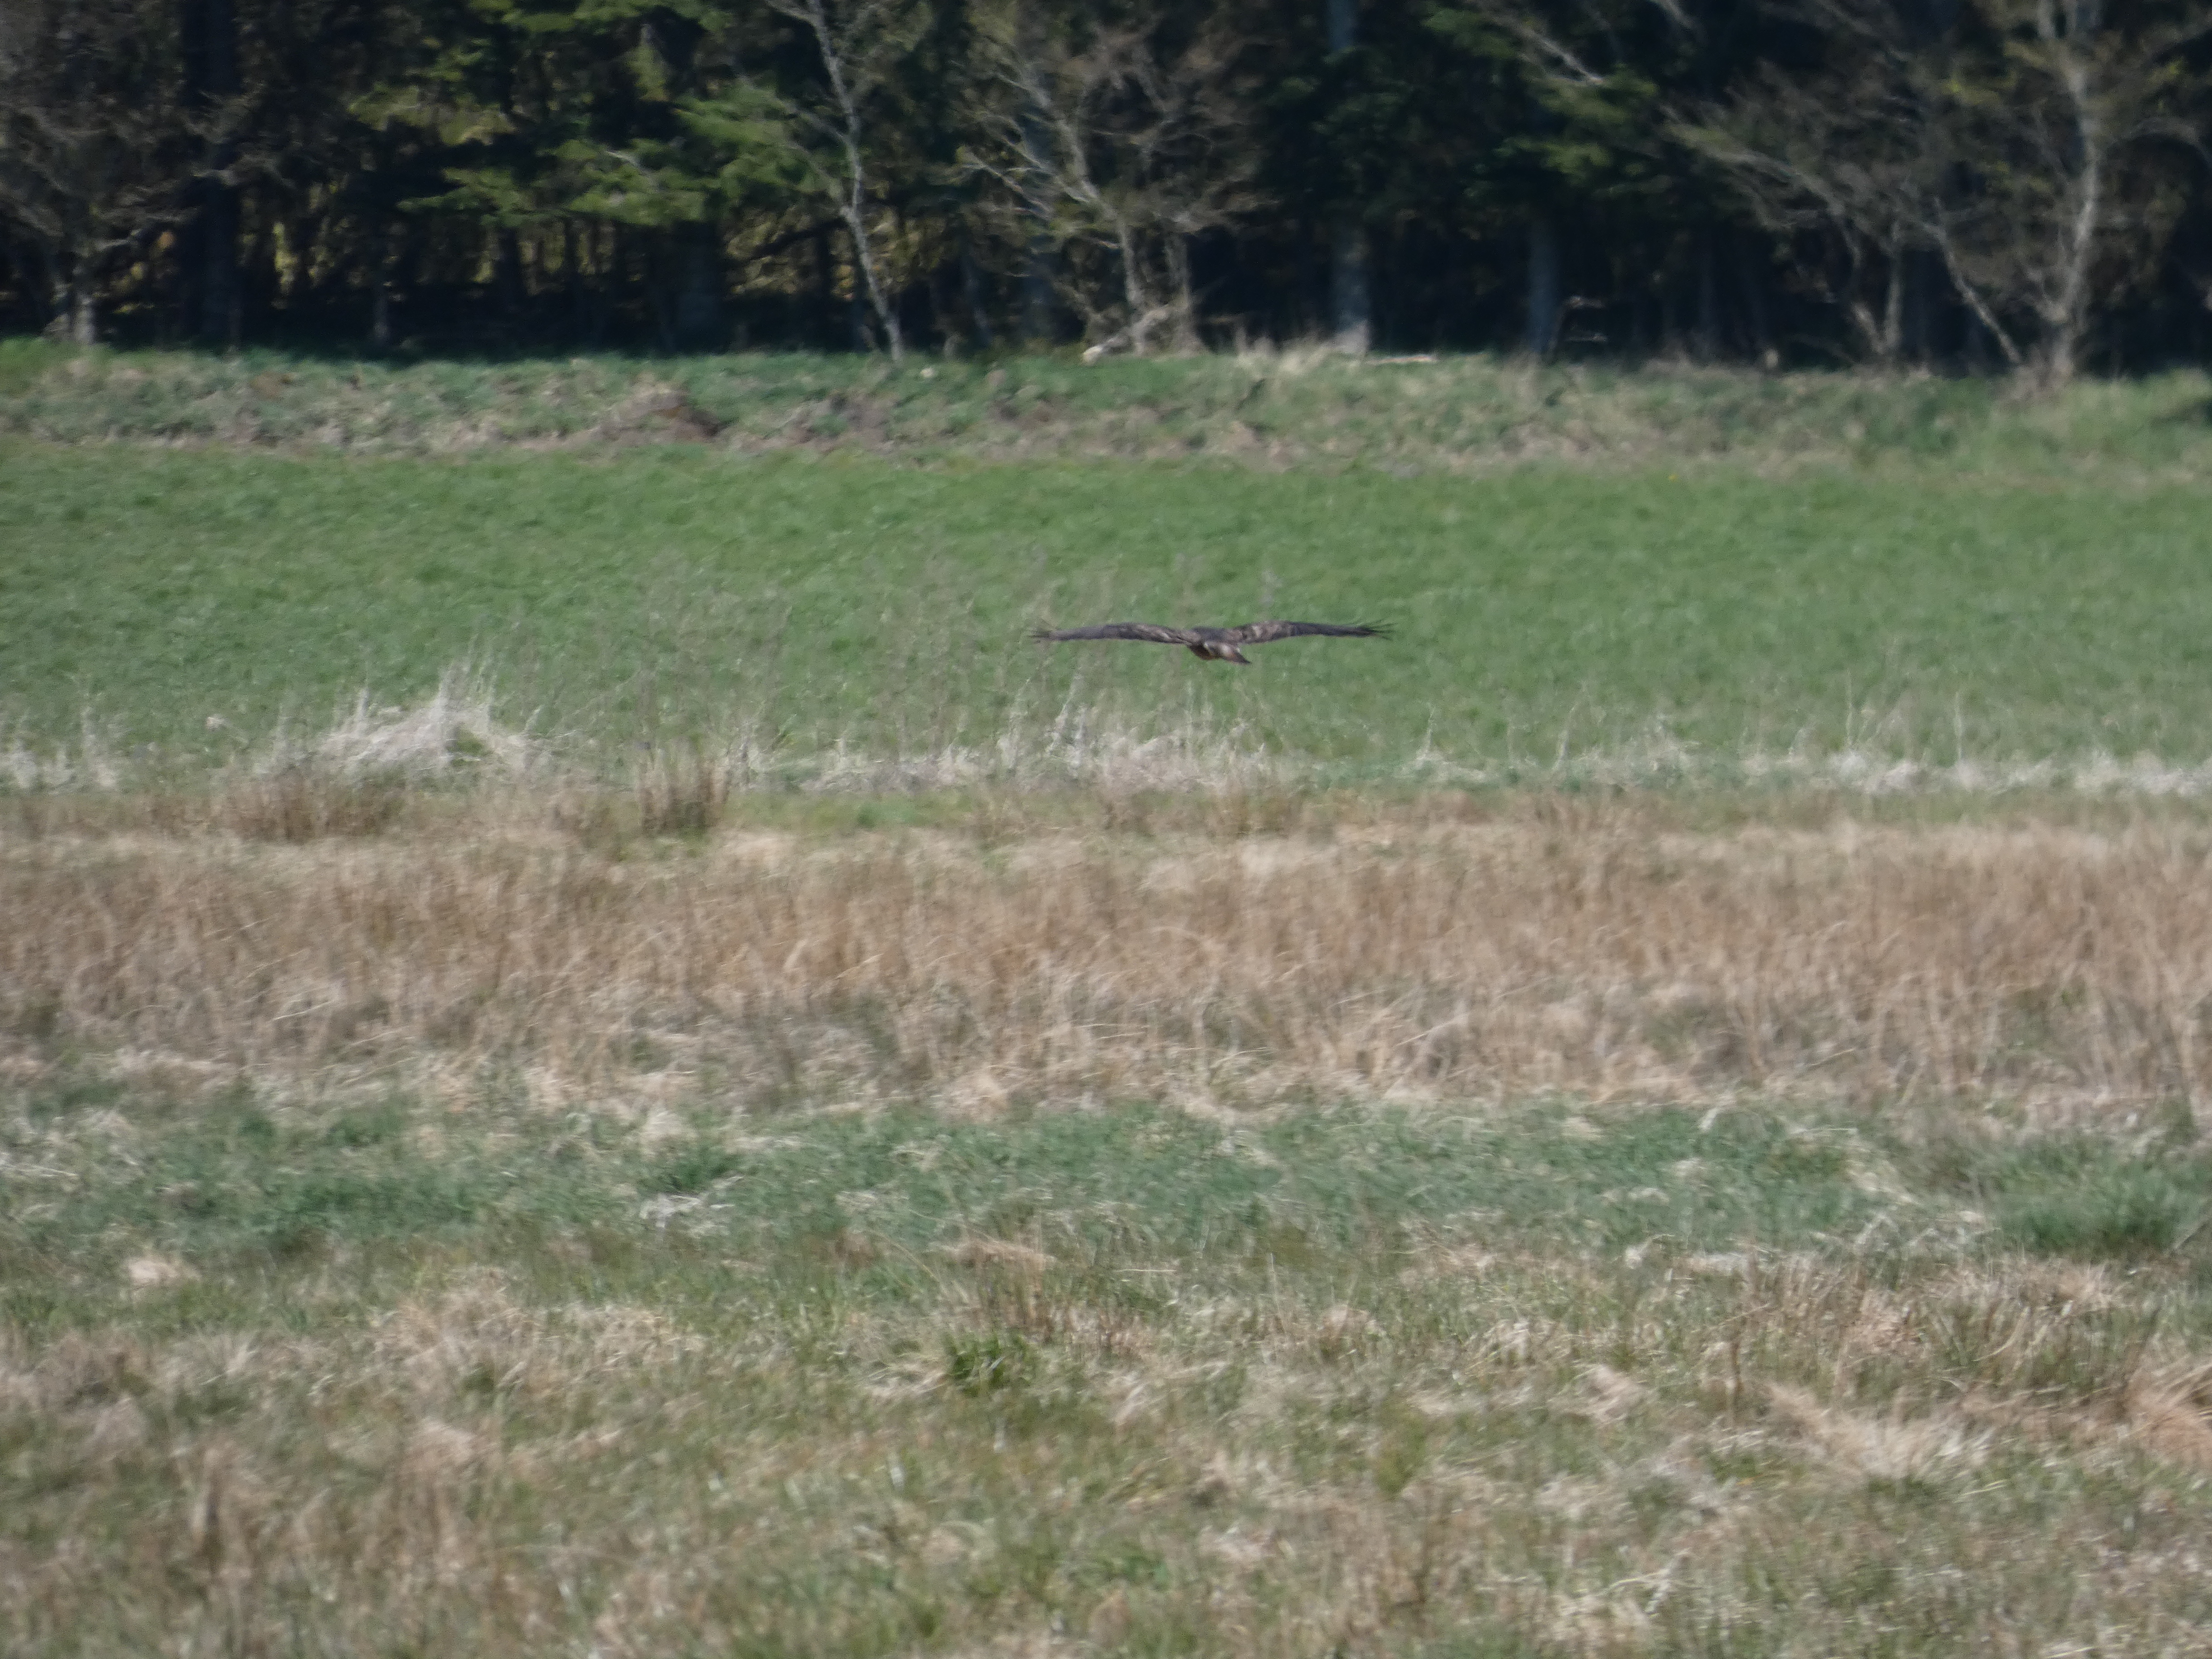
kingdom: Animalia
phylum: Chordata
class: Aves
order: Accipitriformes
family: Accipitridae
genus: Buteo
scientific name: Buteo buteo
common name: Musvåge
